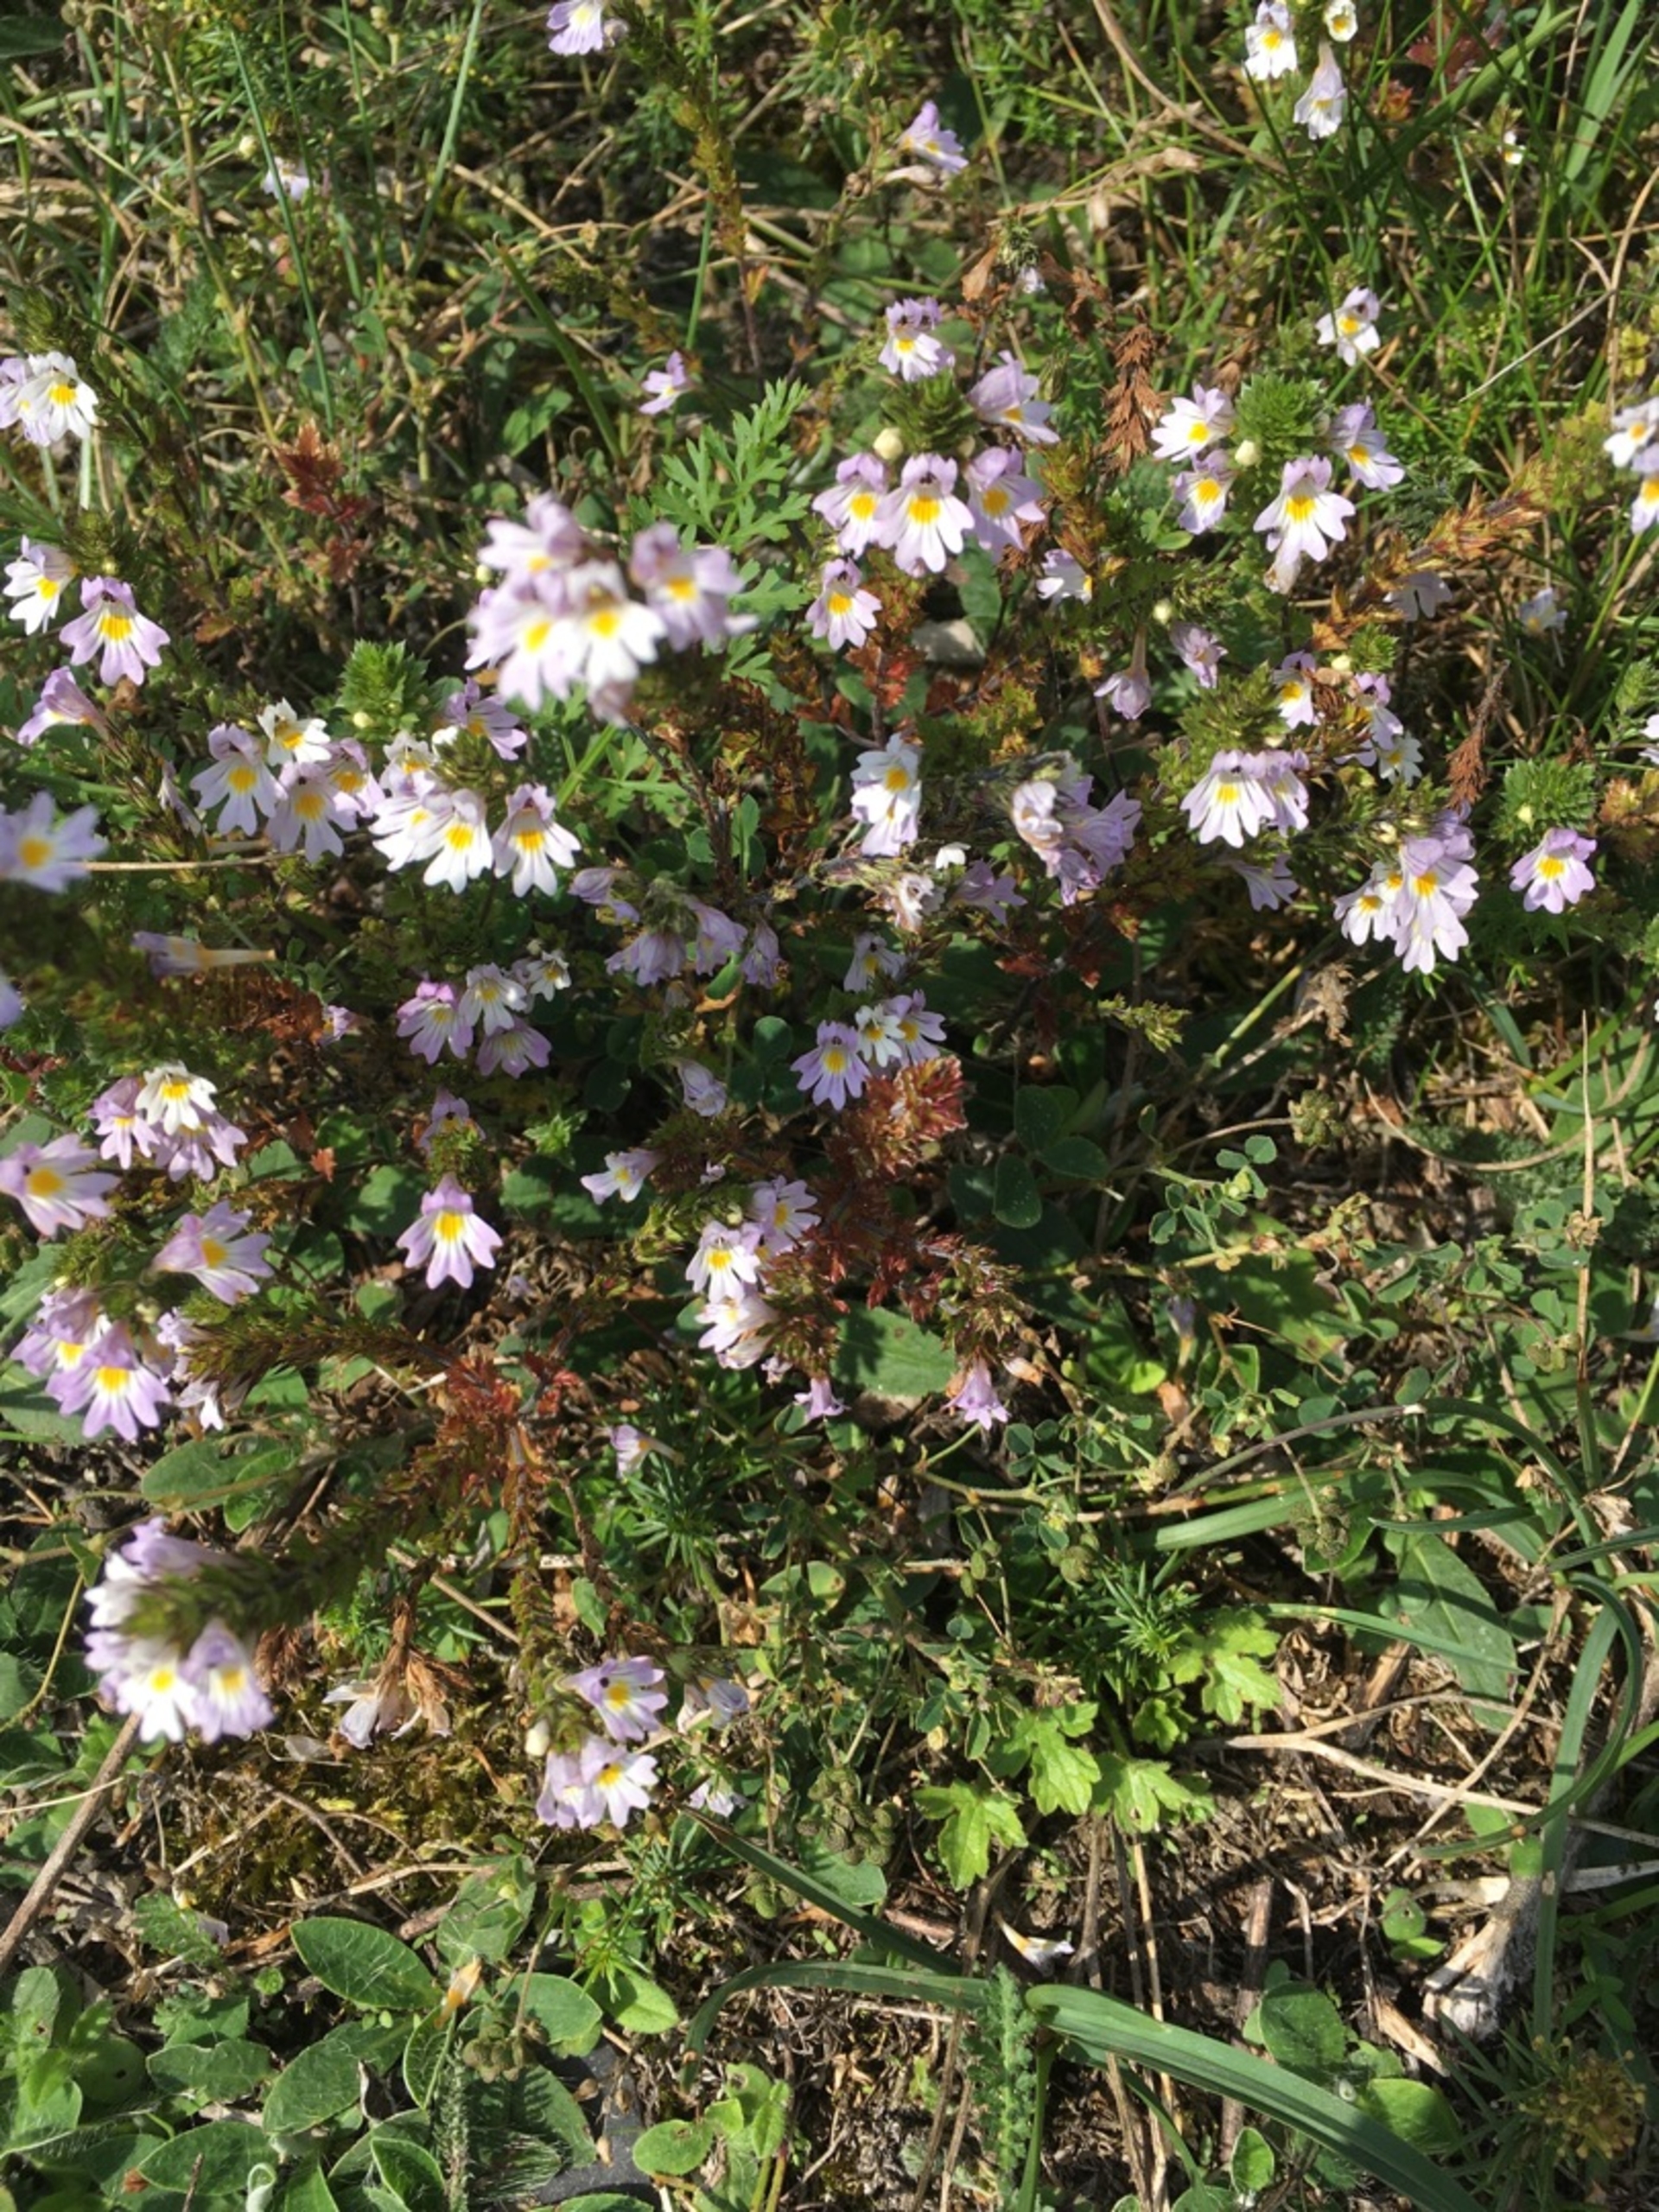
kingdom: Plantae
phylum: Tracheophyta
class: Magnoliopsida
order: Lamiales
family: Orobanchaceae
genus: Euphrasia
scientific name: Euphrasia stricta
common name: Spids øjentrøst
